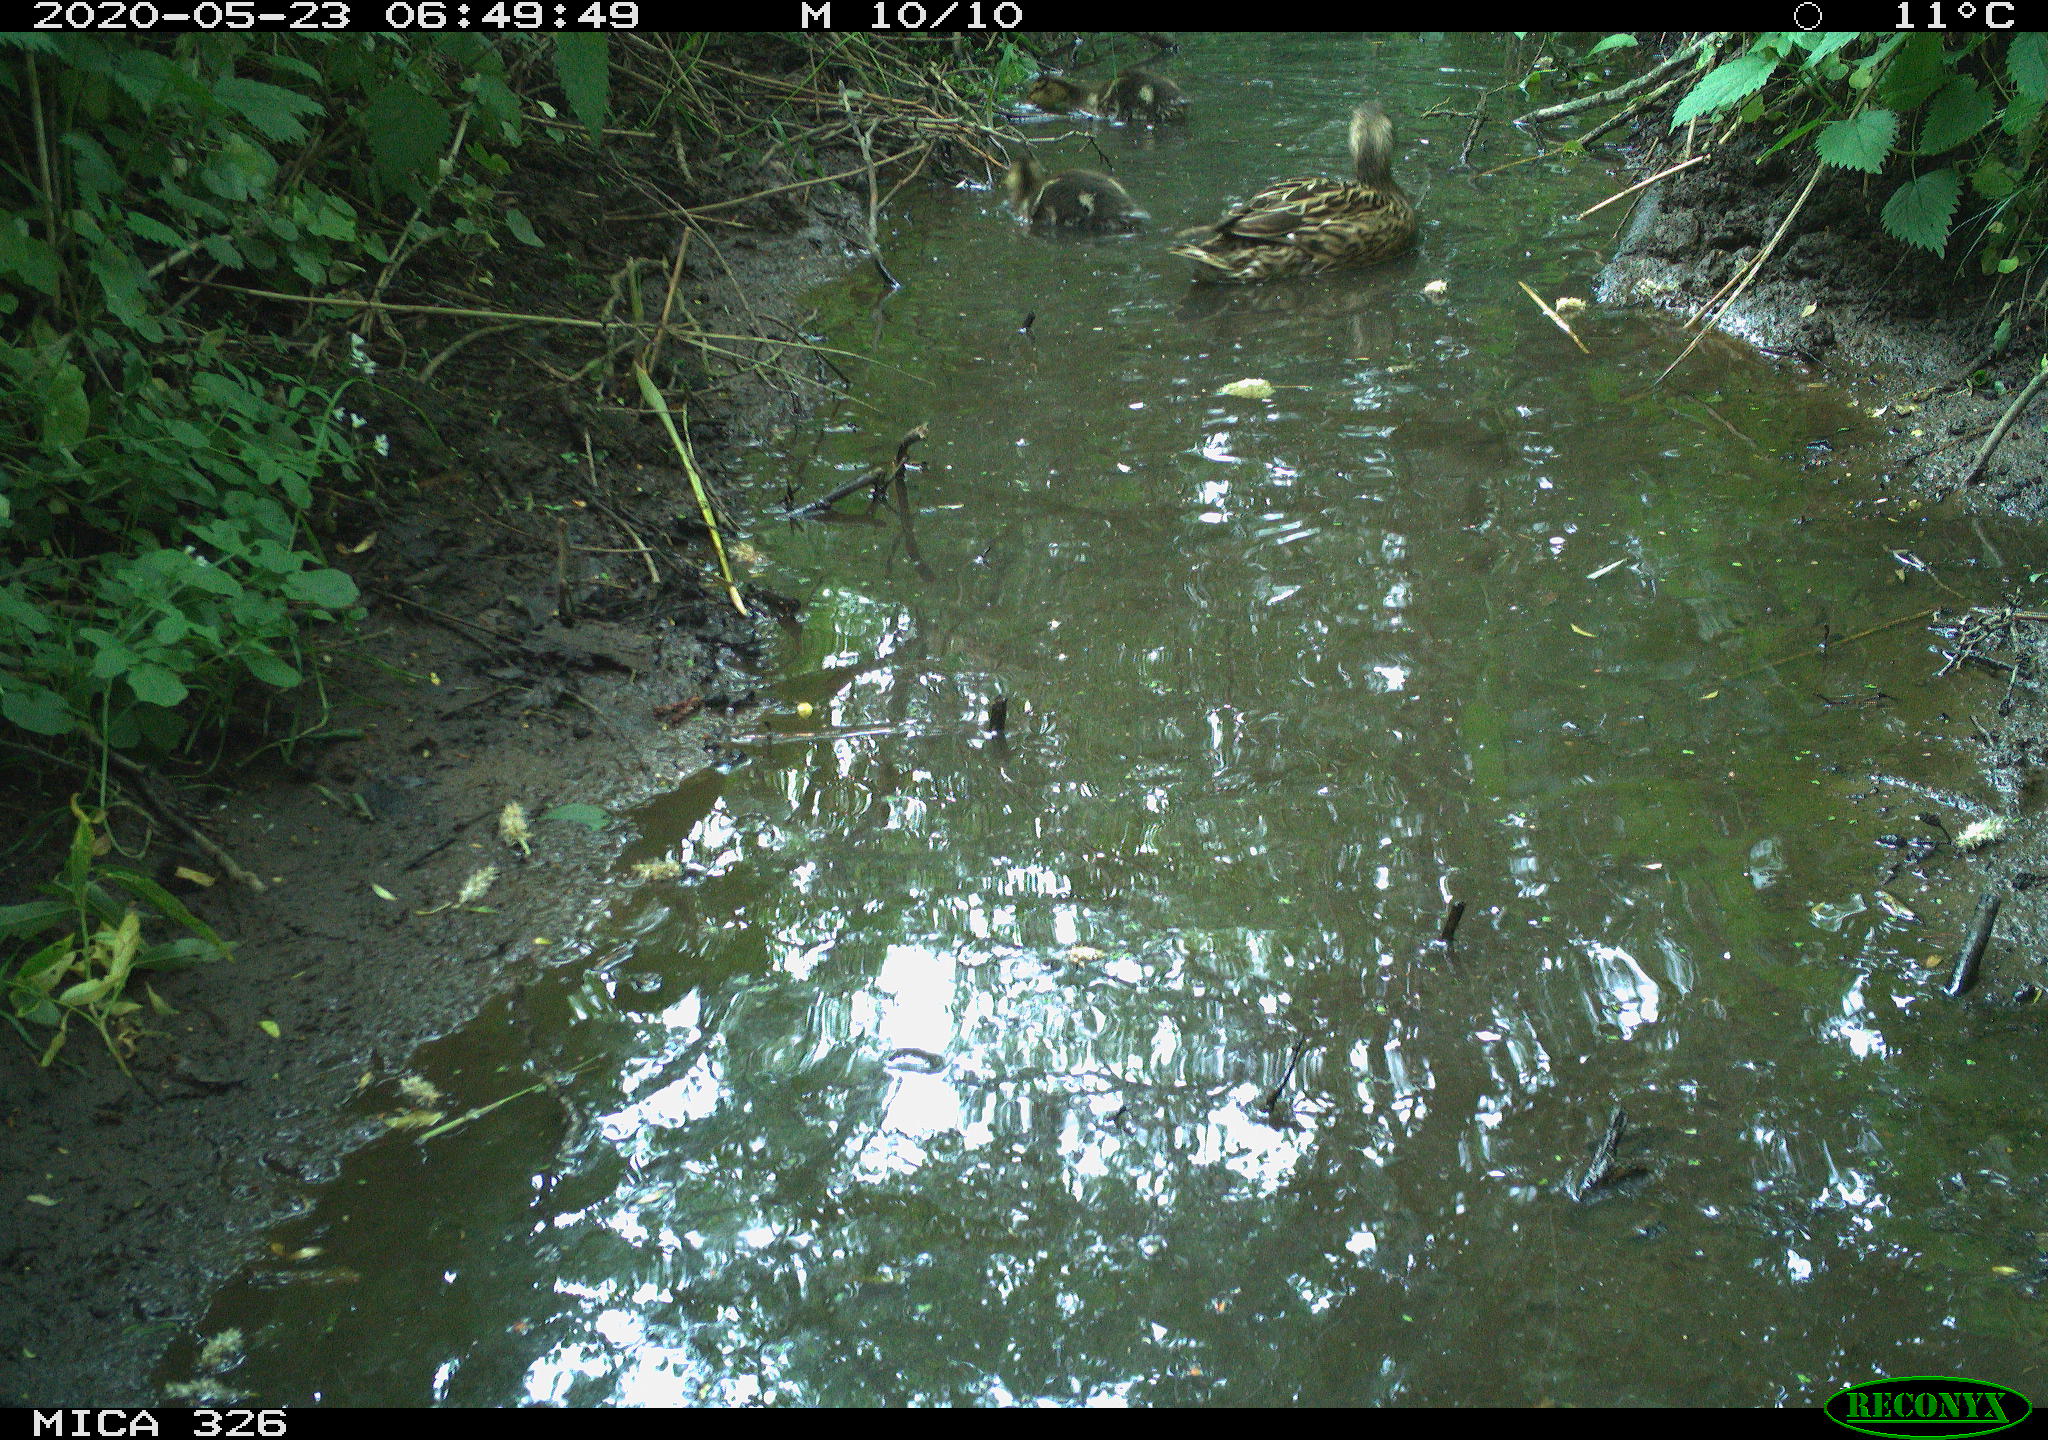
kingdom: Animalia
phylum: Chordata
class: Aves
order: Anseriformes
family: Anatidae
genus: Anas
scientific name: Anas platyrhynchos
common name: Mallard
